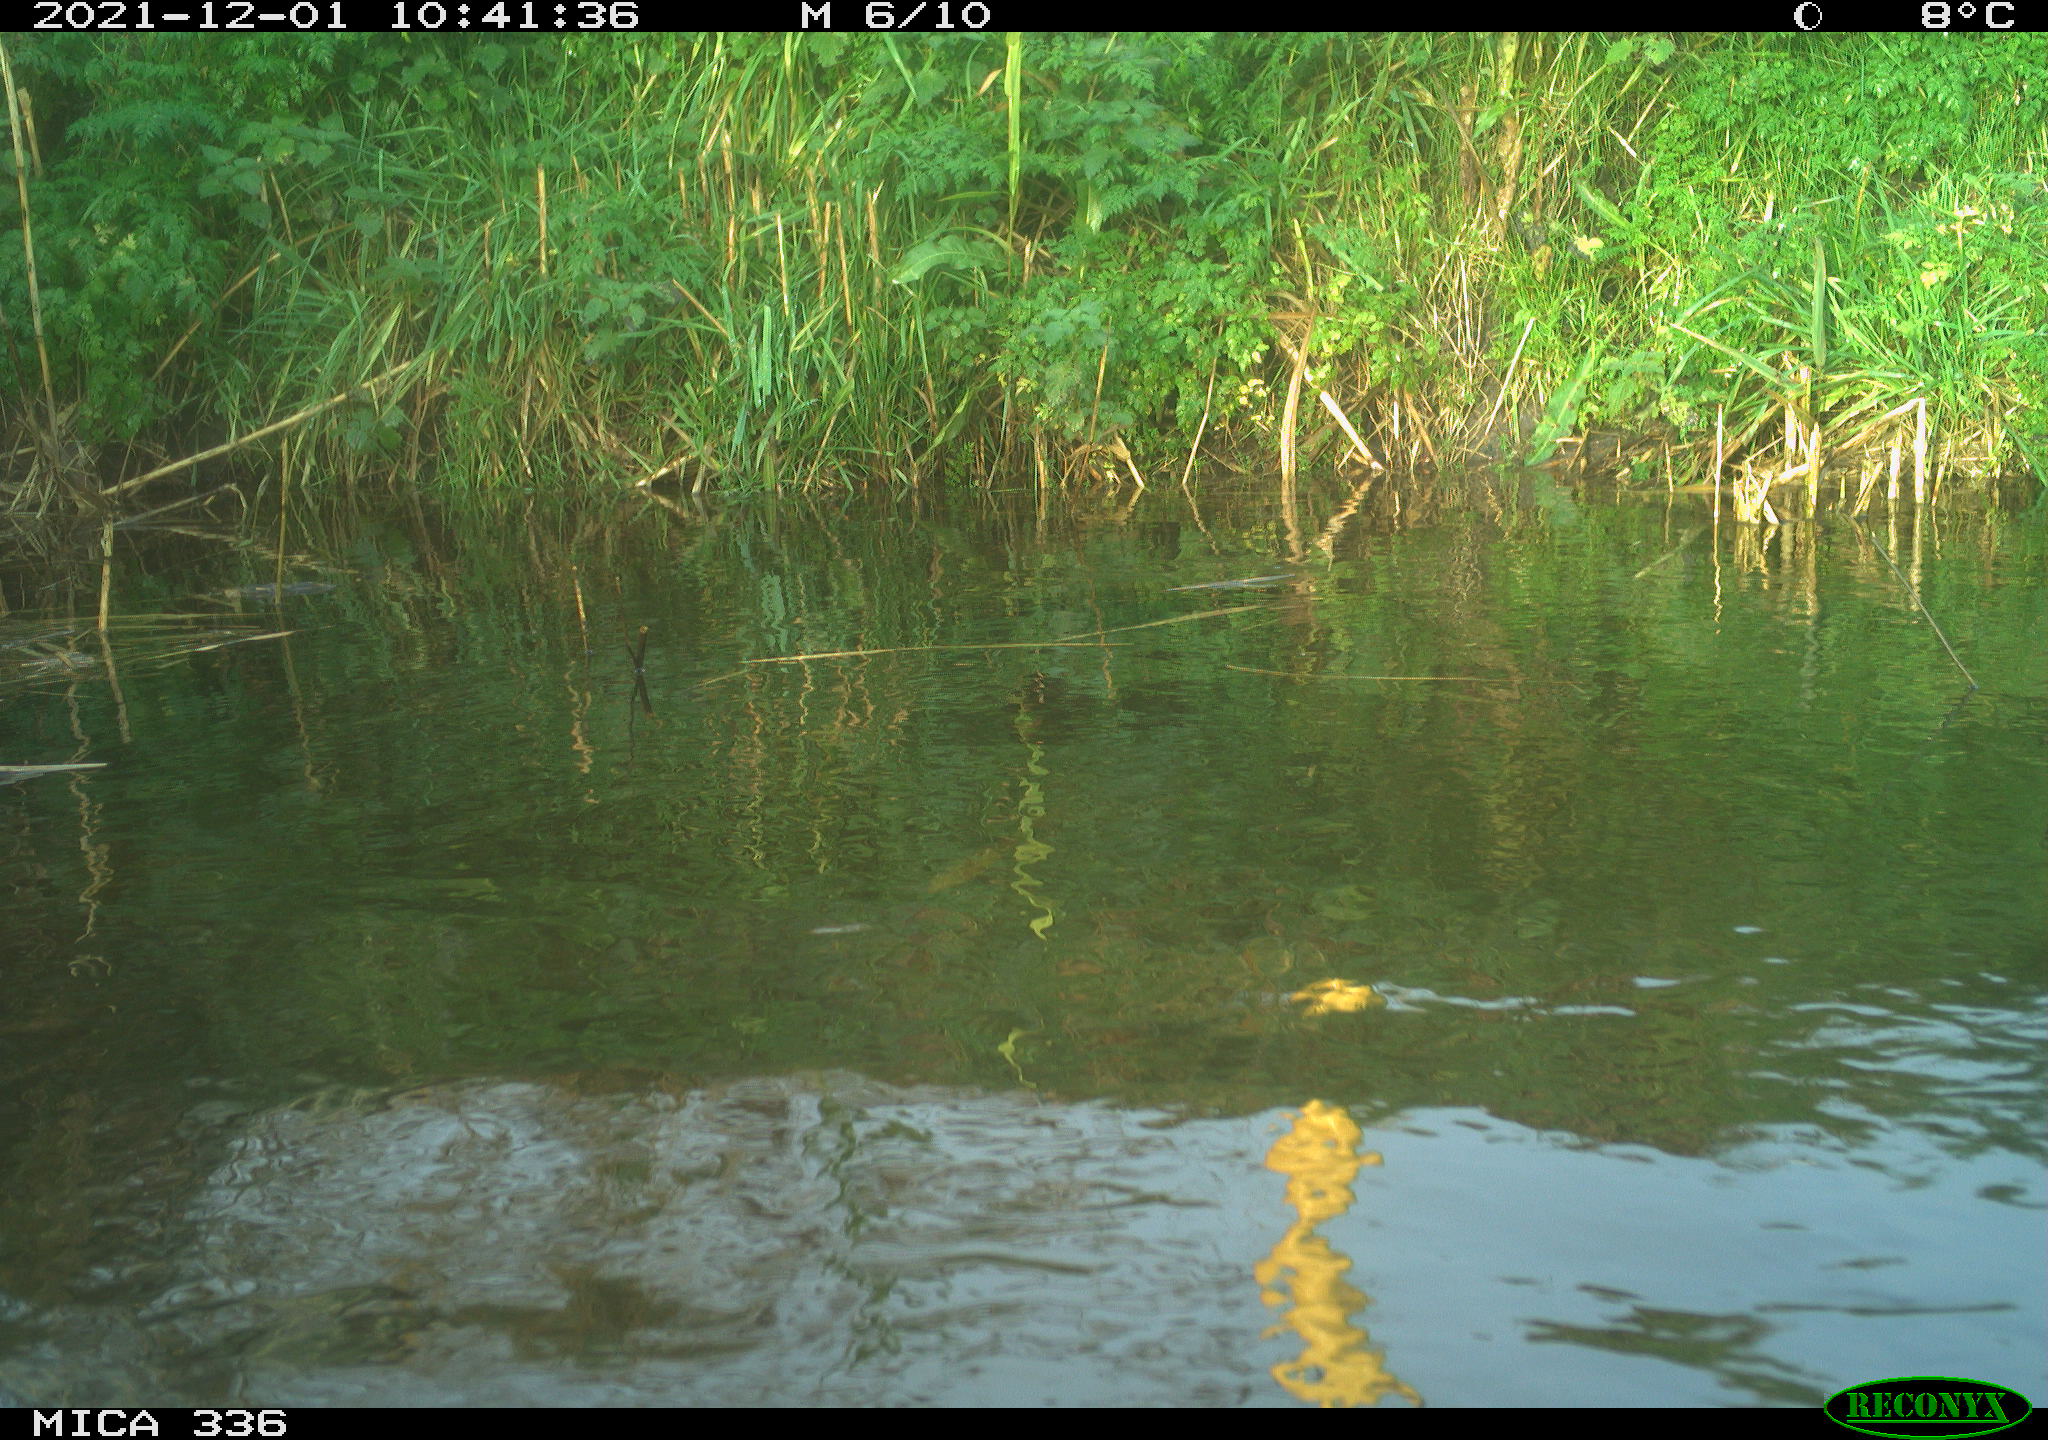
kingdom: Animalia
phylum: Chordata
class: Aves
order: Gruiformes
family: Rallidae
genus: Gallinula
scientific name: Gallinula chloropus
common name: Common moorhen
